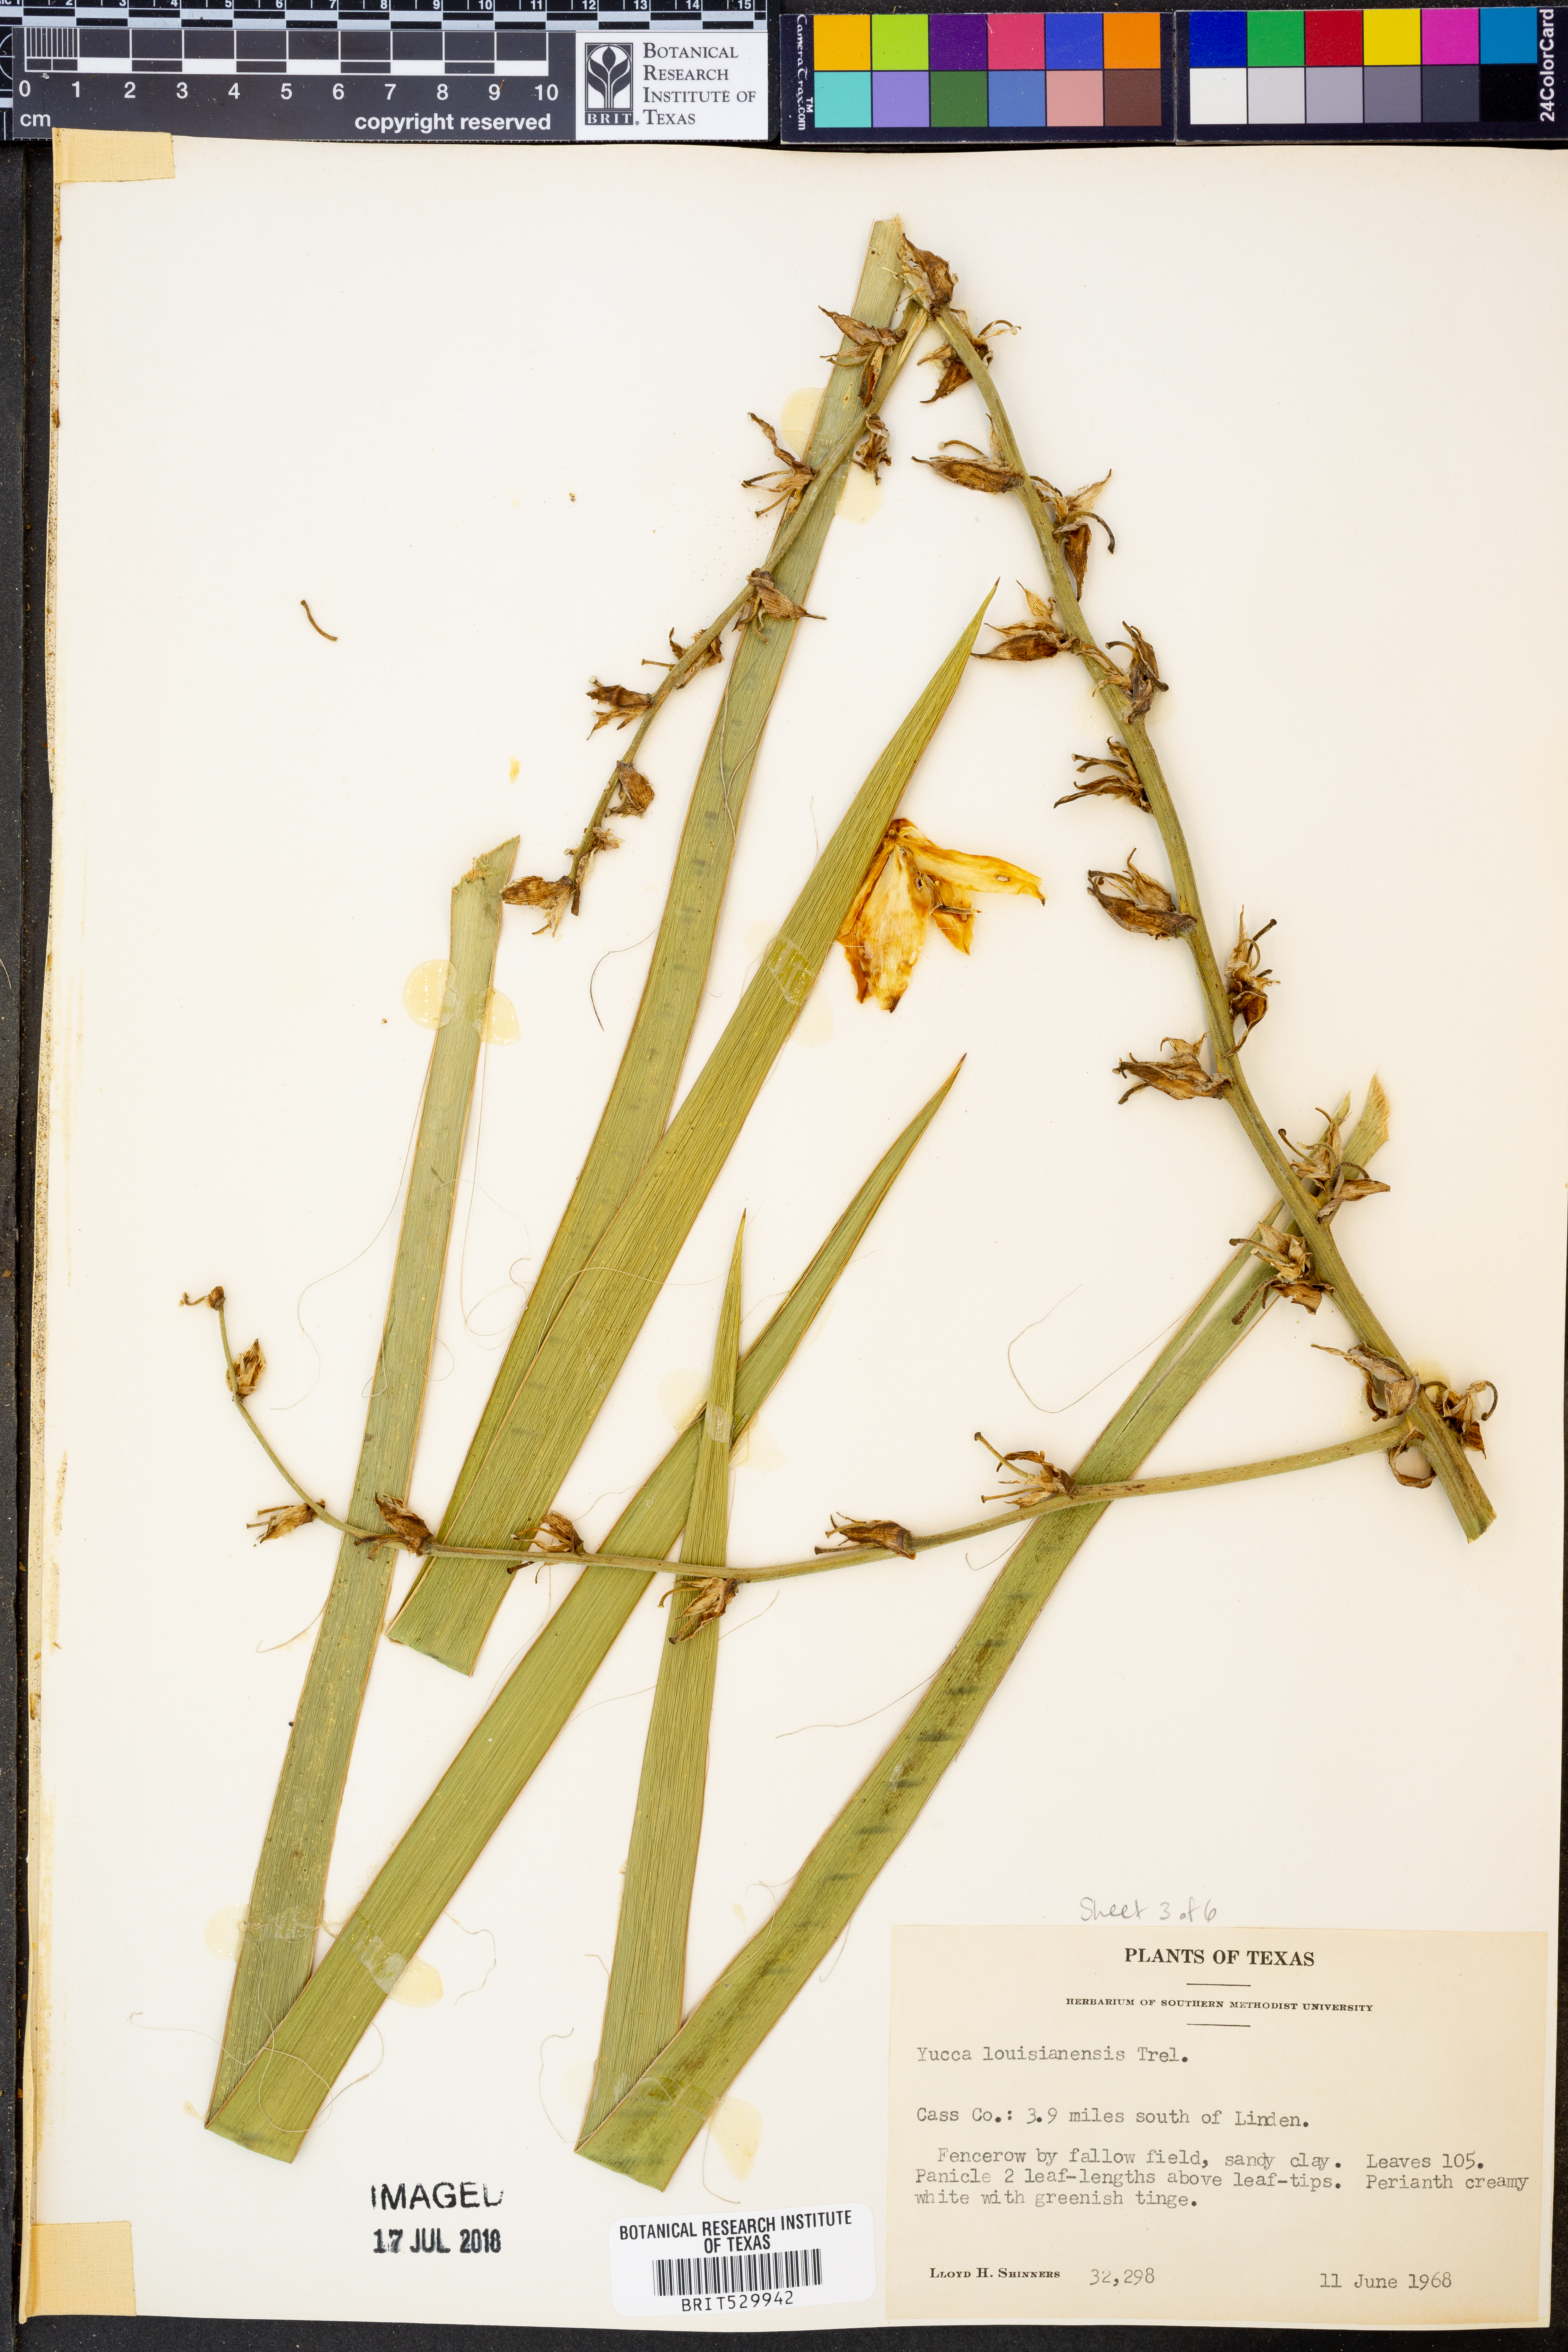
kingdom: Plantae
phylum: Tracheophyta
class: Liliopsida
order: Asparagales
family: Asparagaceae
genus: Yucca
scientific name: Yucca flaccida
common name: Adam's-needle
